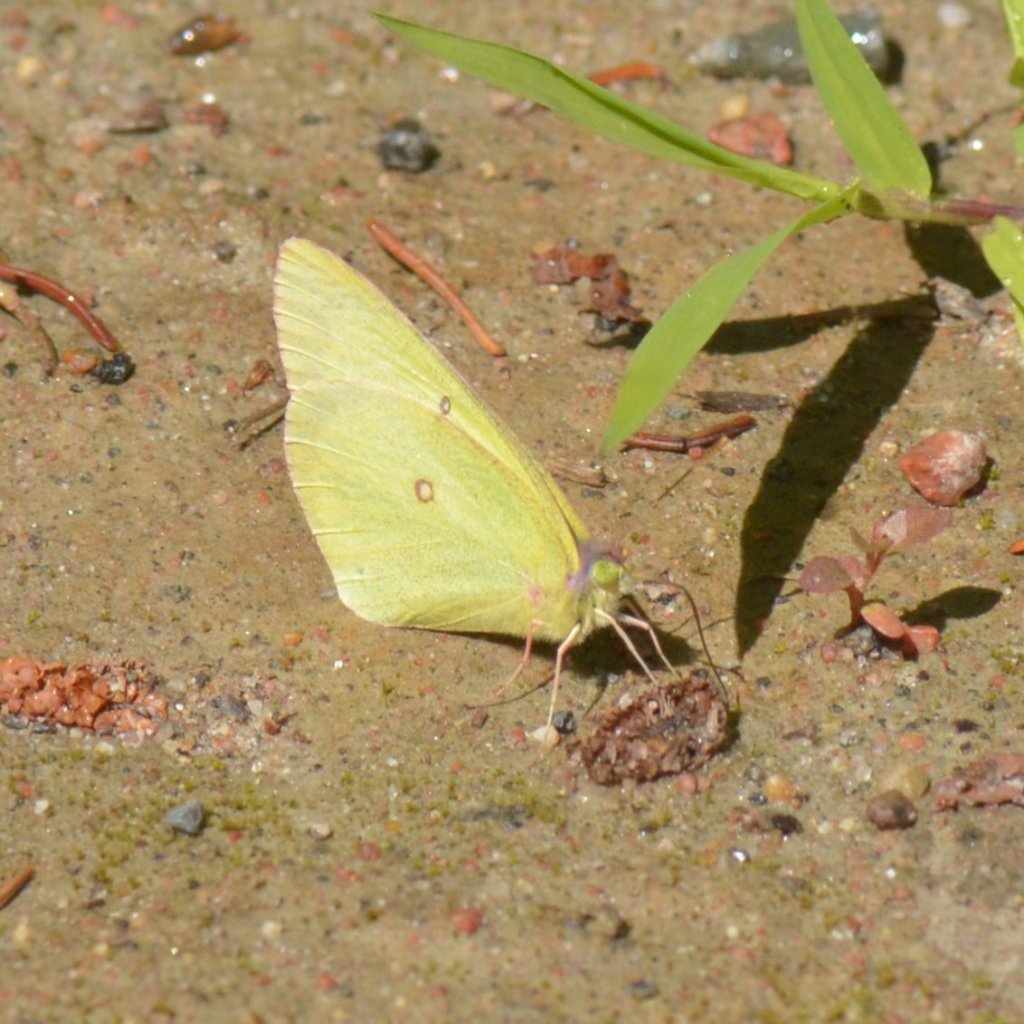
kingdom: Animalia
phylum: Arthropoda
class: Insecta
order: Lepidoptera
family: Pieridae
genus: Colias
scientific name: Colias interior
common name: Pink-edged Sulphur
